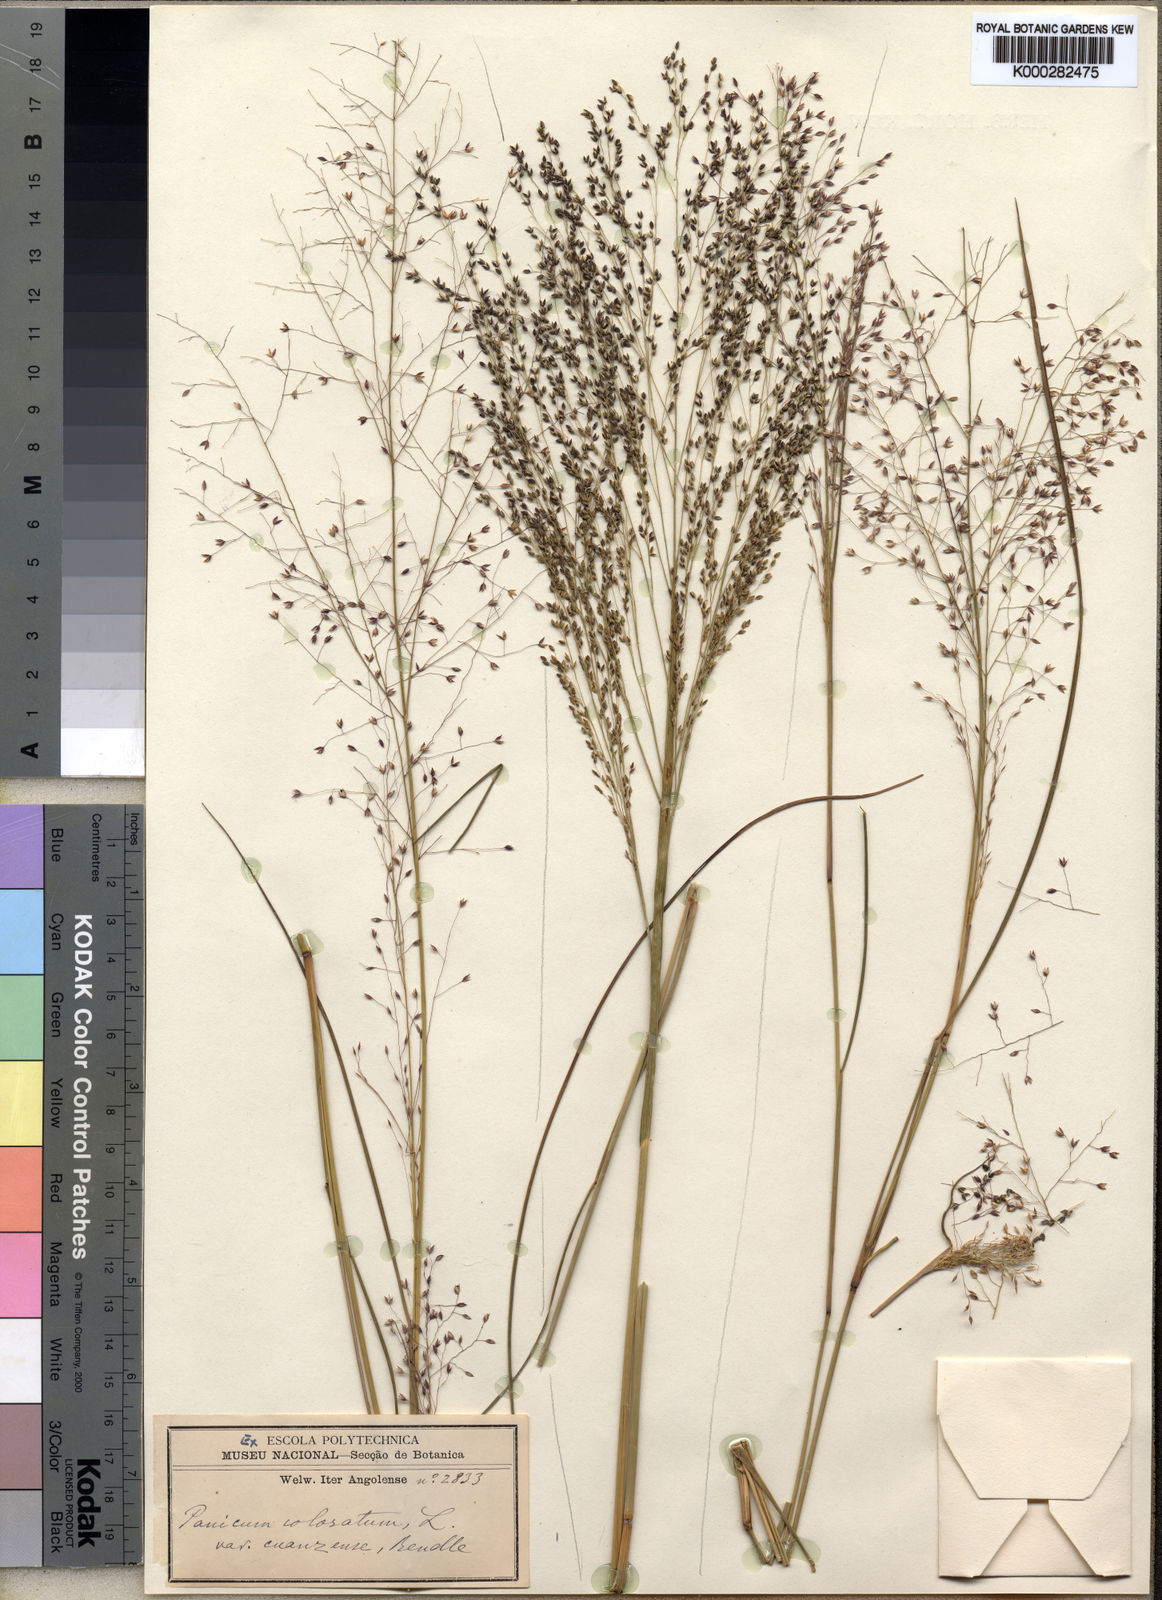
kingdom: Plantae
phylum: Tracheophyta
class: Liliopsida
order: Poales
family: Poaceae
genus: Panicum
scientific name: Panicum
